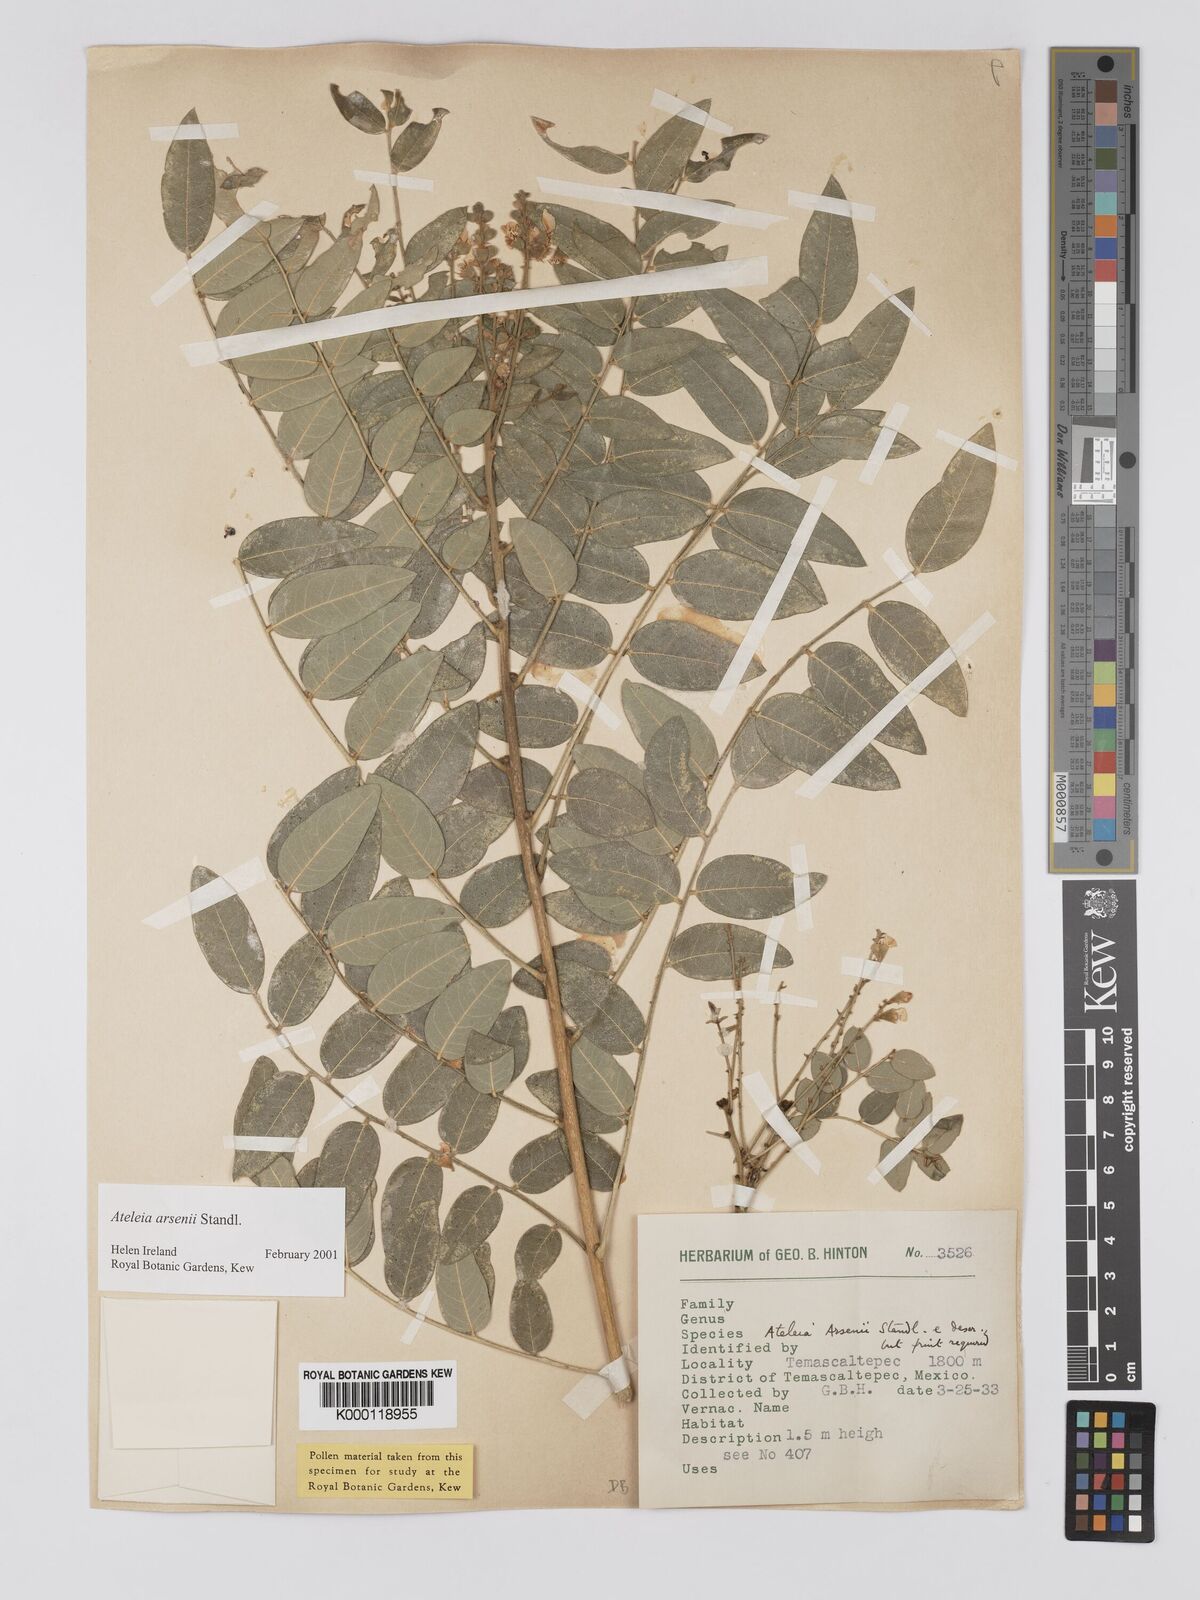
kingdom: Plantae
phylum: Tracheophyta
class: Magnoliopsida
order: Fabales
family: Fabaceae
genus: Ateleia
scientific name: Ateleia arsenii
